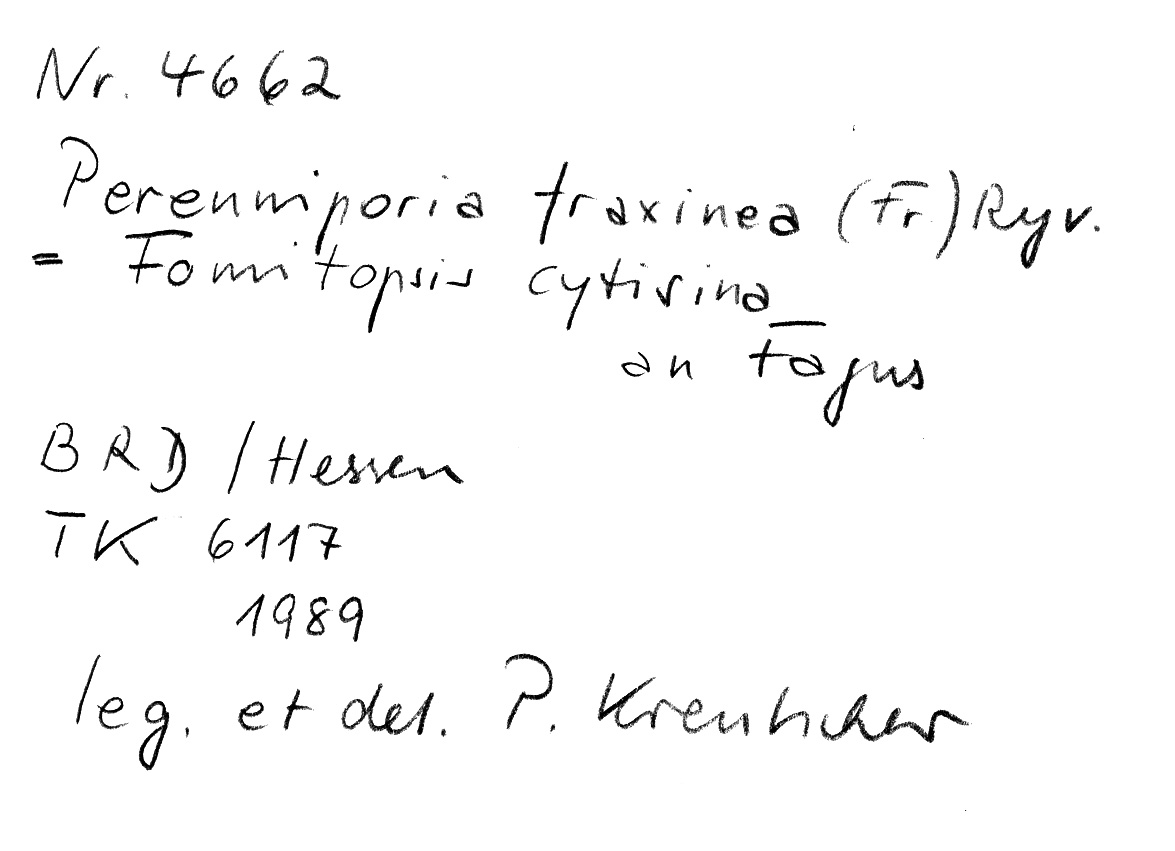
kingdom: Plantae
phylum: Tracheophyta
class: Magnoliopsida
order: Fagales
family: Fagaceae
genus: Fagus
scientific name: Fagus sylvatica
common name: Beech
